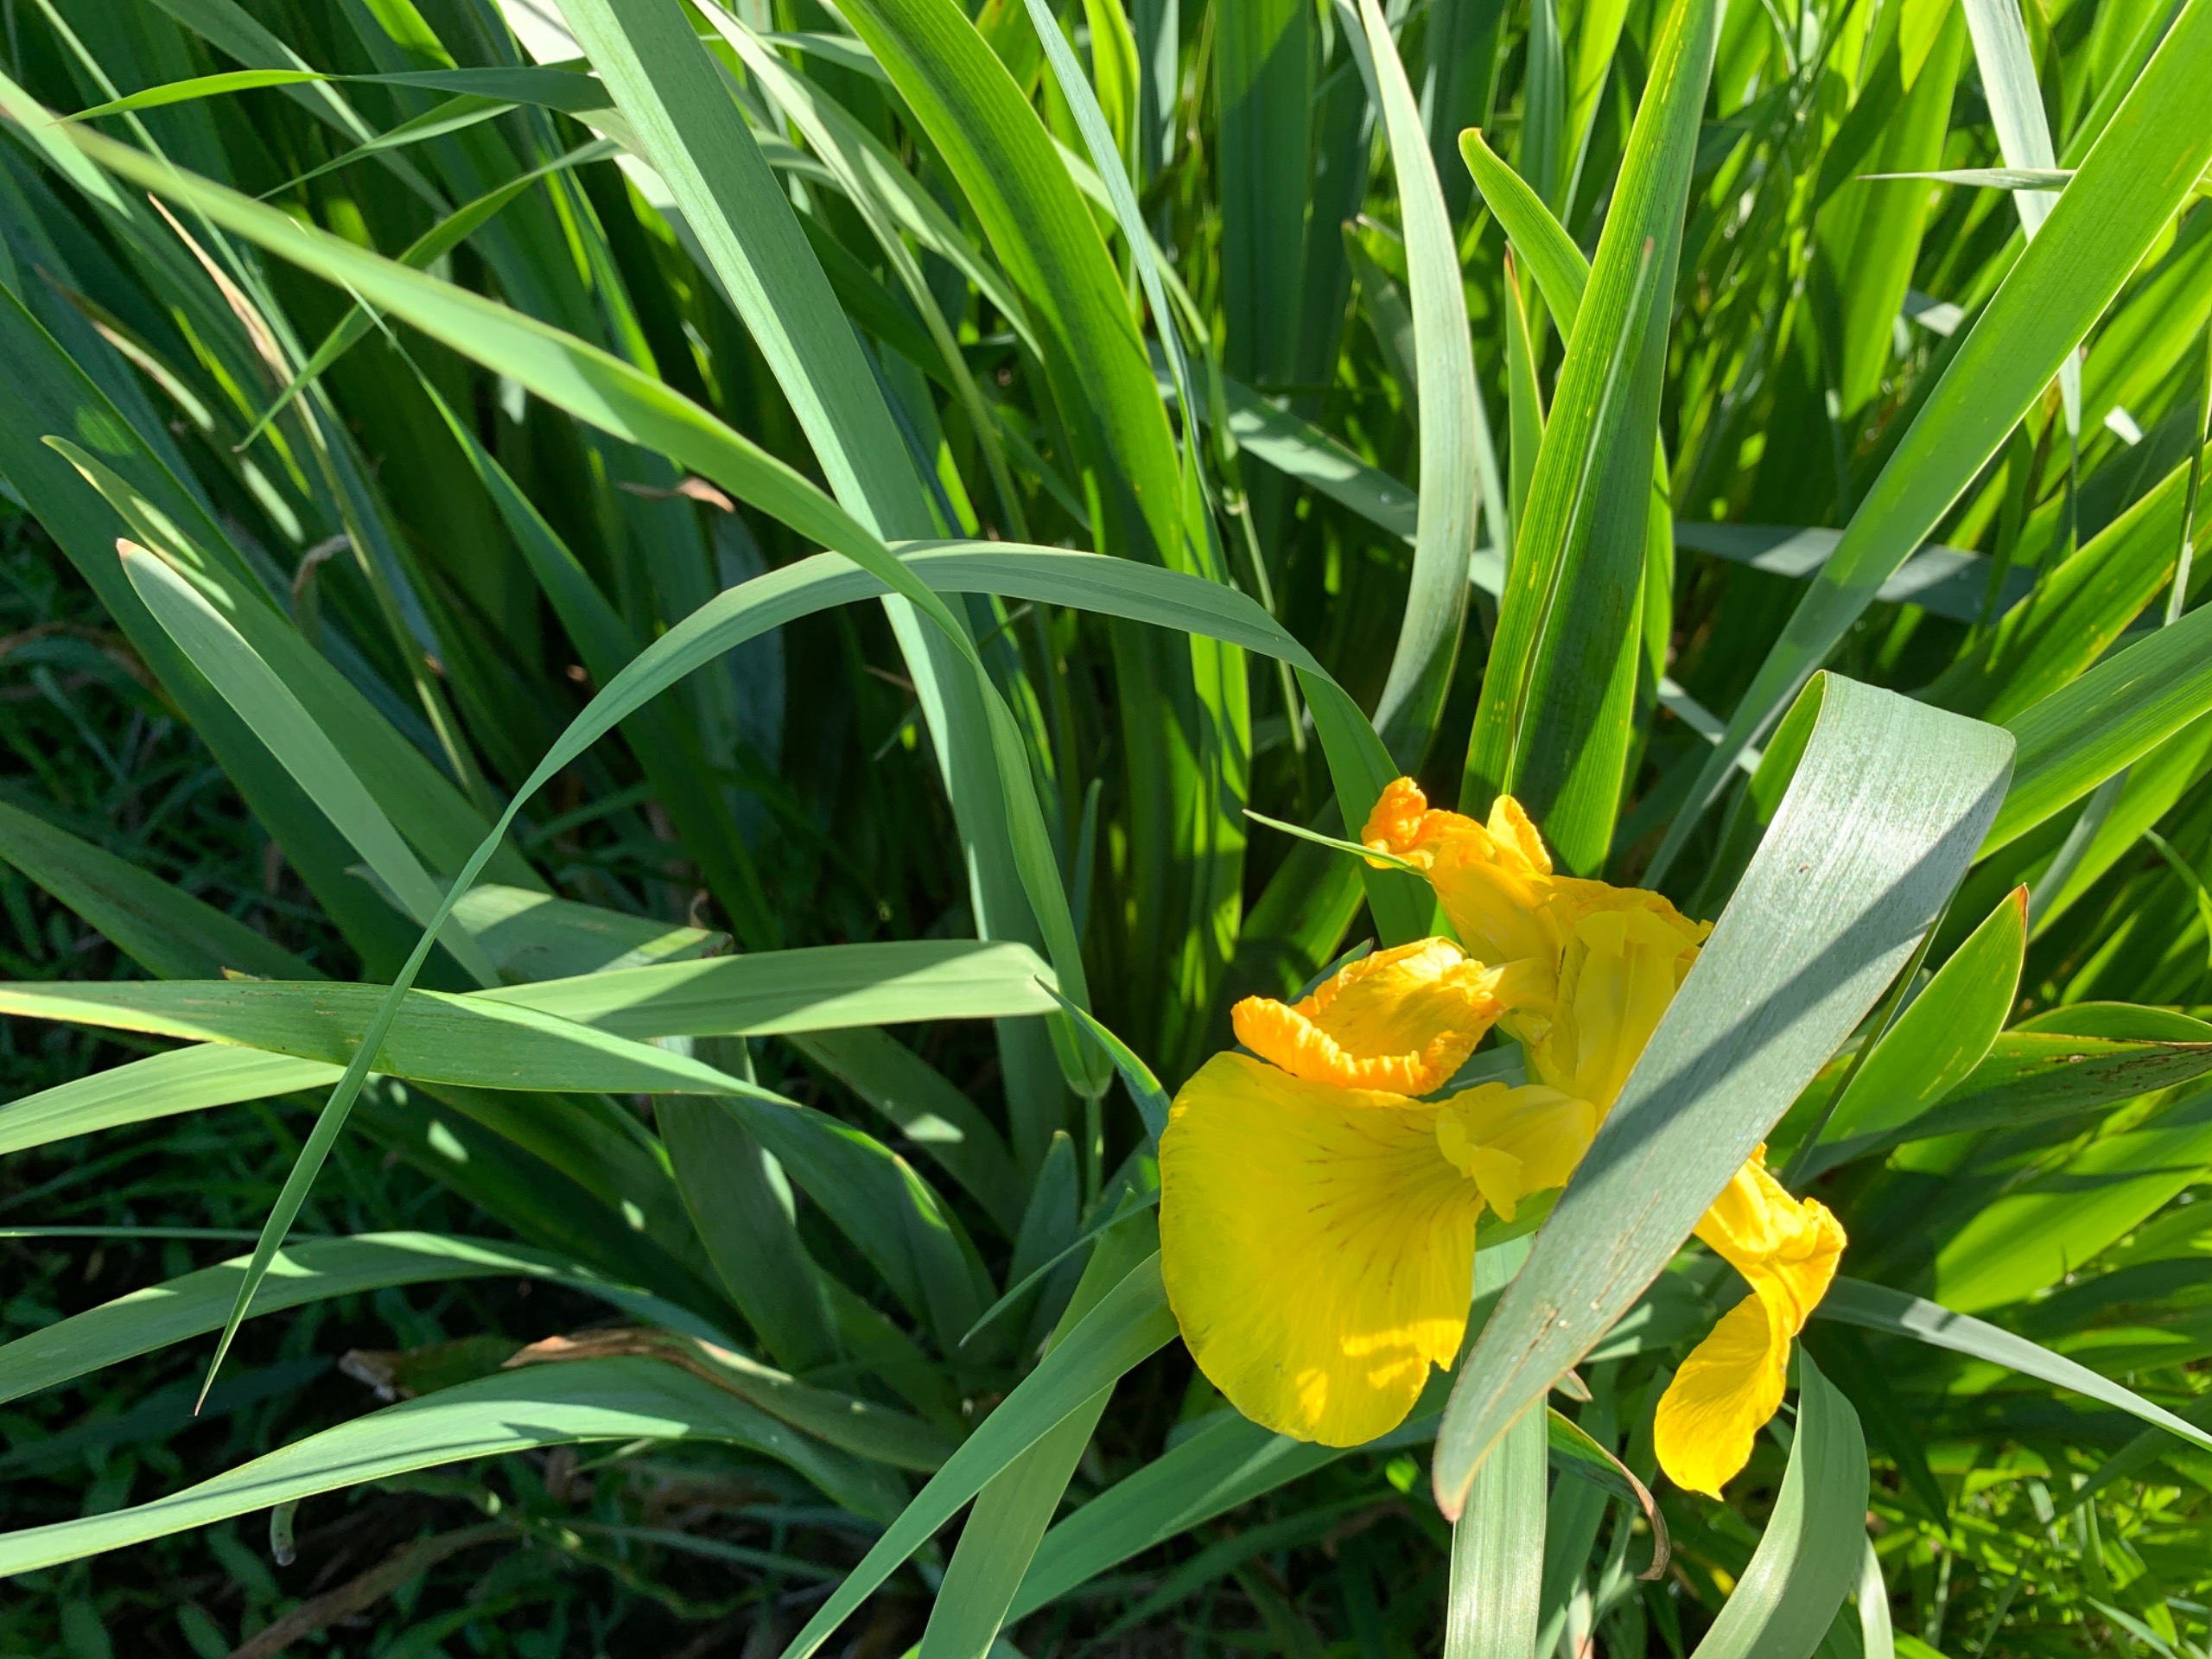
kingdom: Plantae
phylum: Tracheophyta
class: Liliopsida
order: Asparagales
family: Iridaceae
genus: Iris
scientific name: Iris pseudacorus
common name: Gul iris
